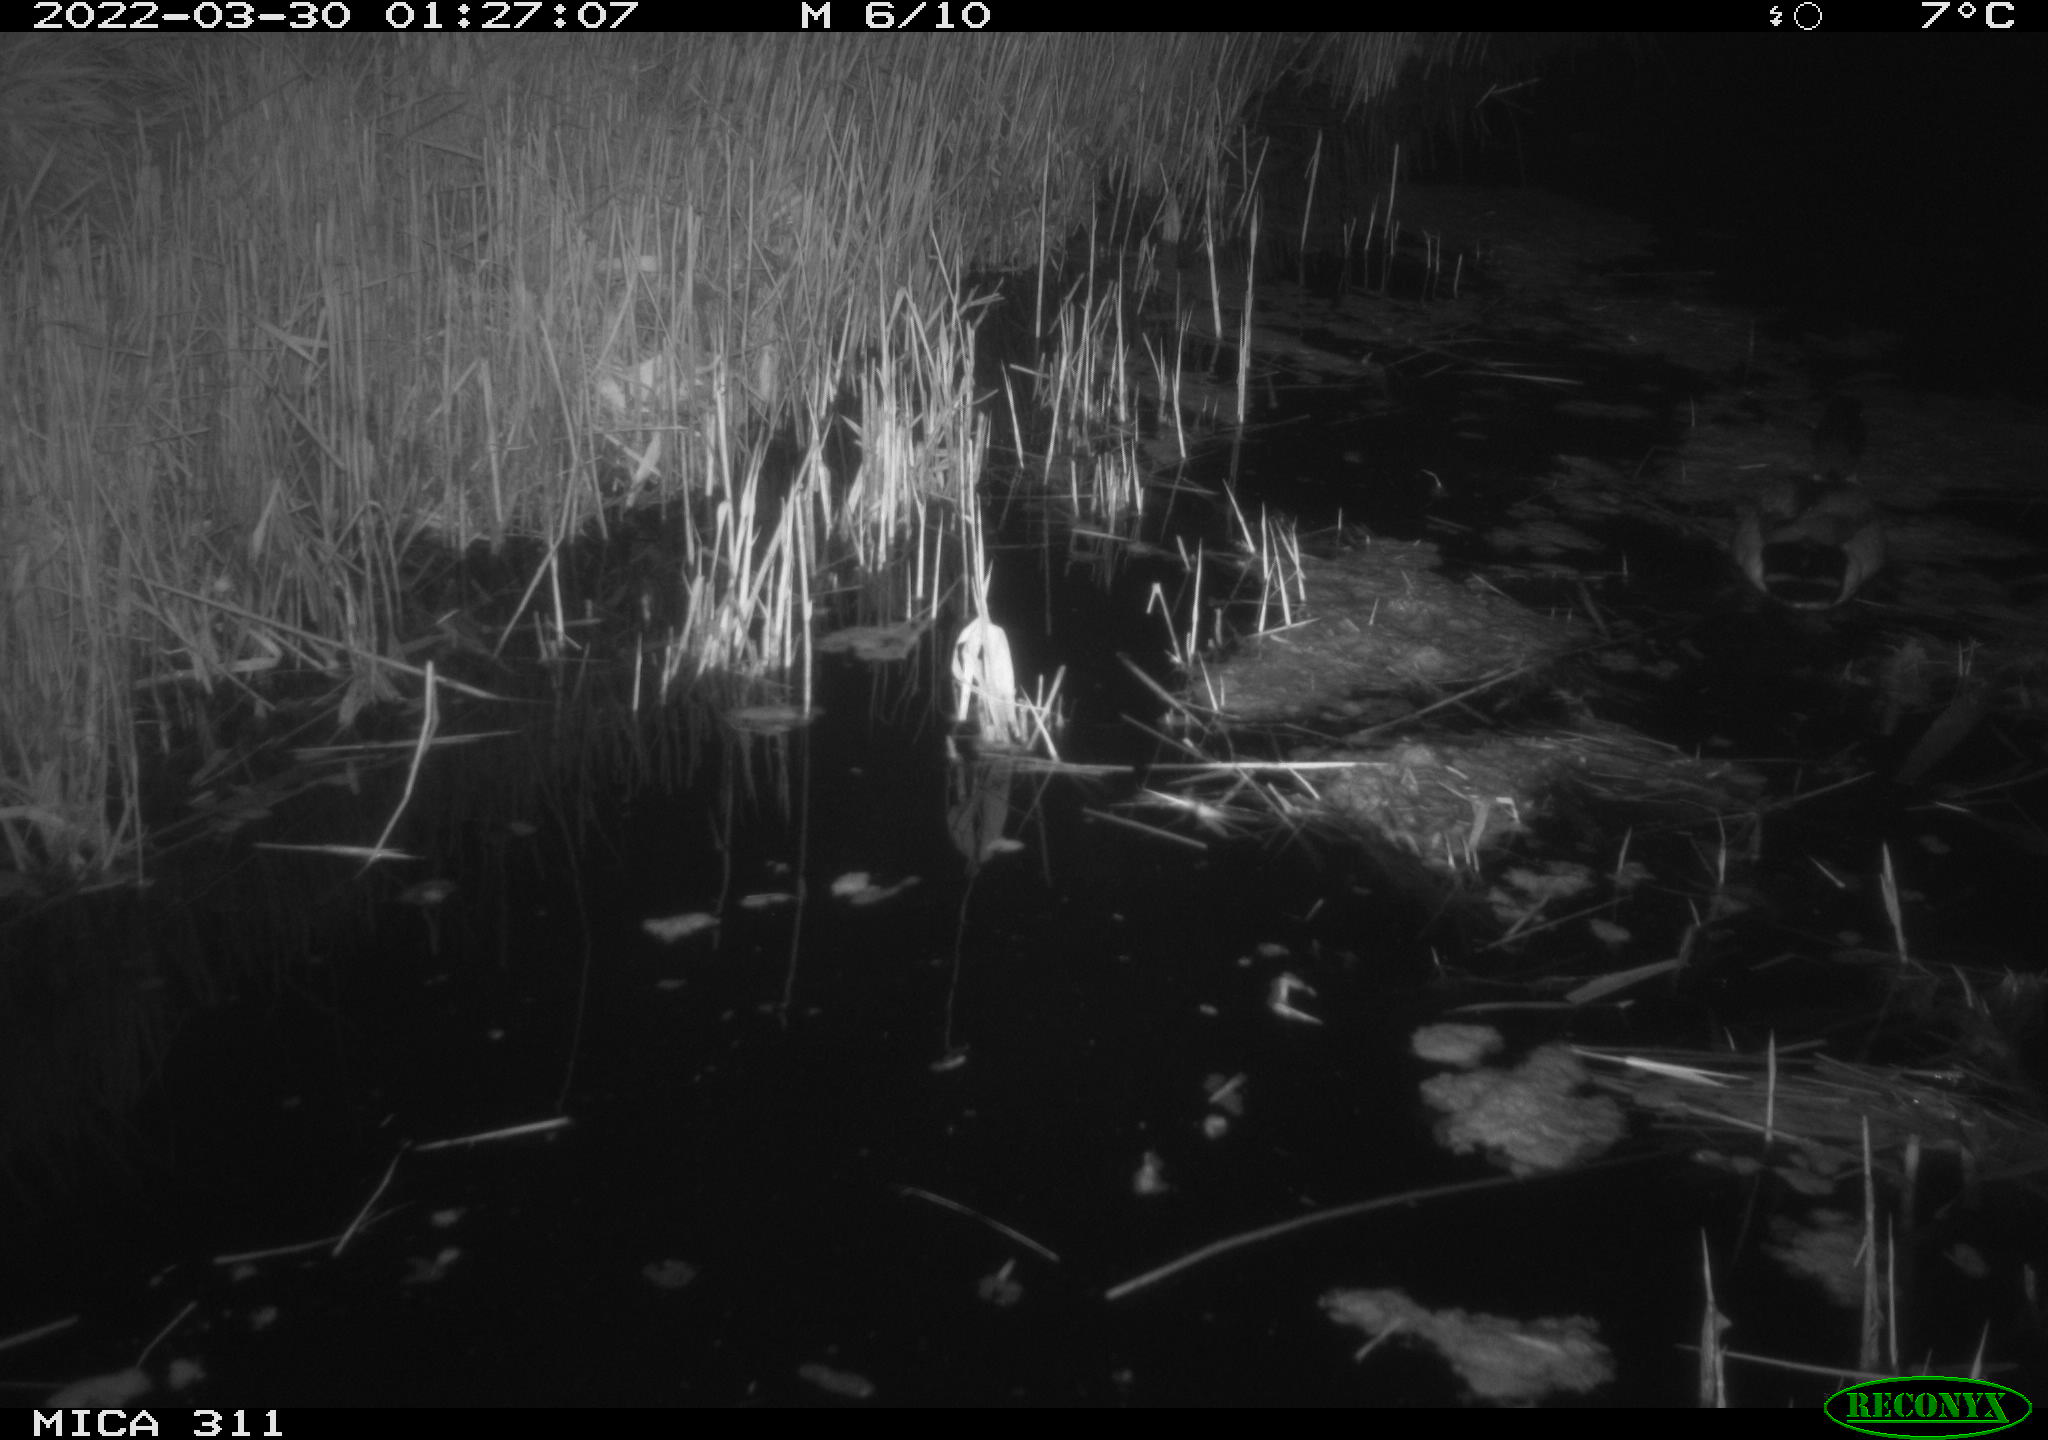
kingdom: Animalia
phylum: Chordata
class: Aves
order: Anseriformes
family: Anatidae
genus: Anas
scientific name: Anas
